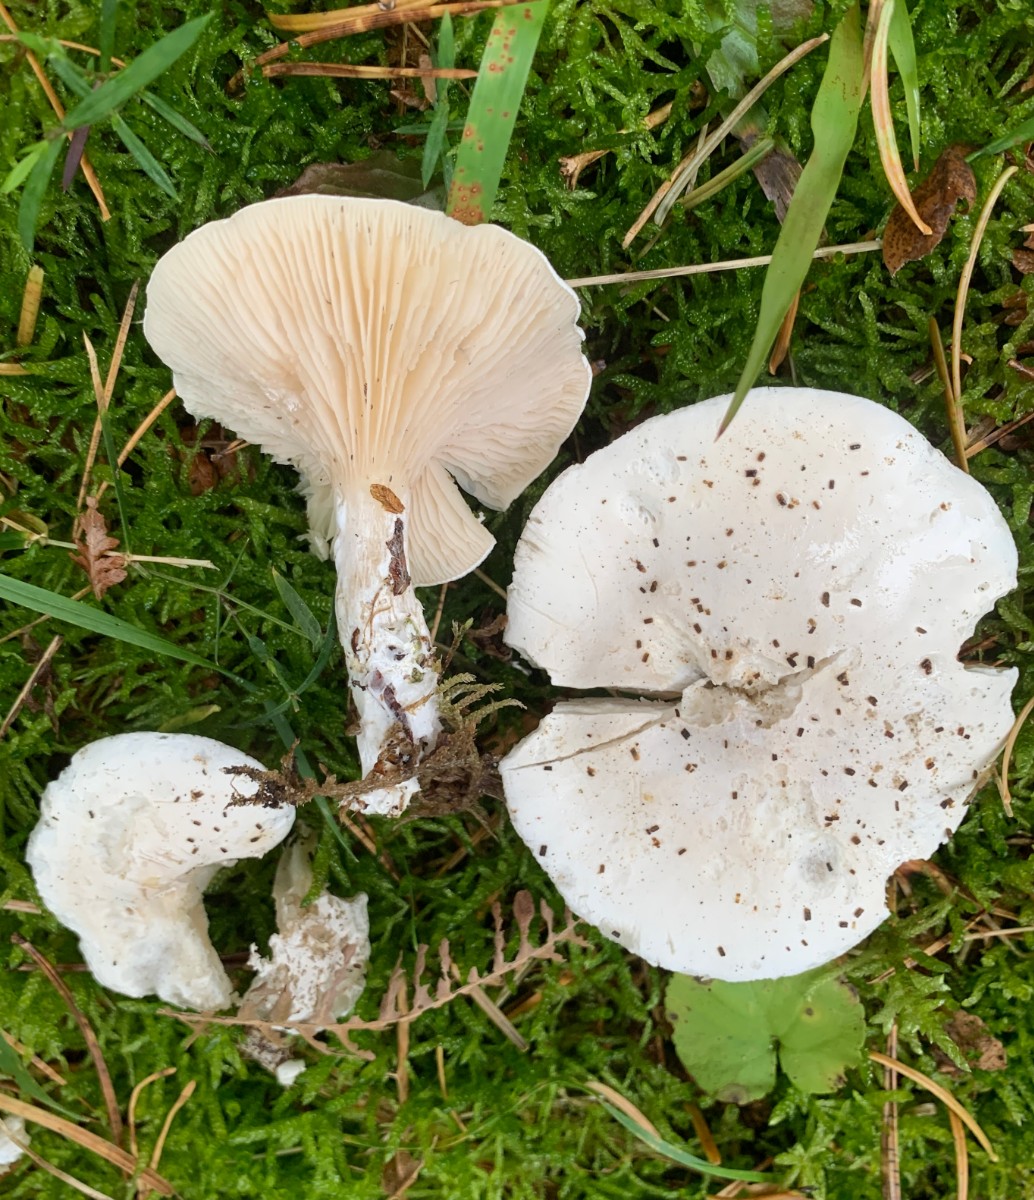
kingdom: Fungi
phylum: Basidiomycota
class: Agaricomycetes
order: Agaricales
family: Entolomataceae
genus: Clitopilus
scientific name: Clitopilus prunulus
